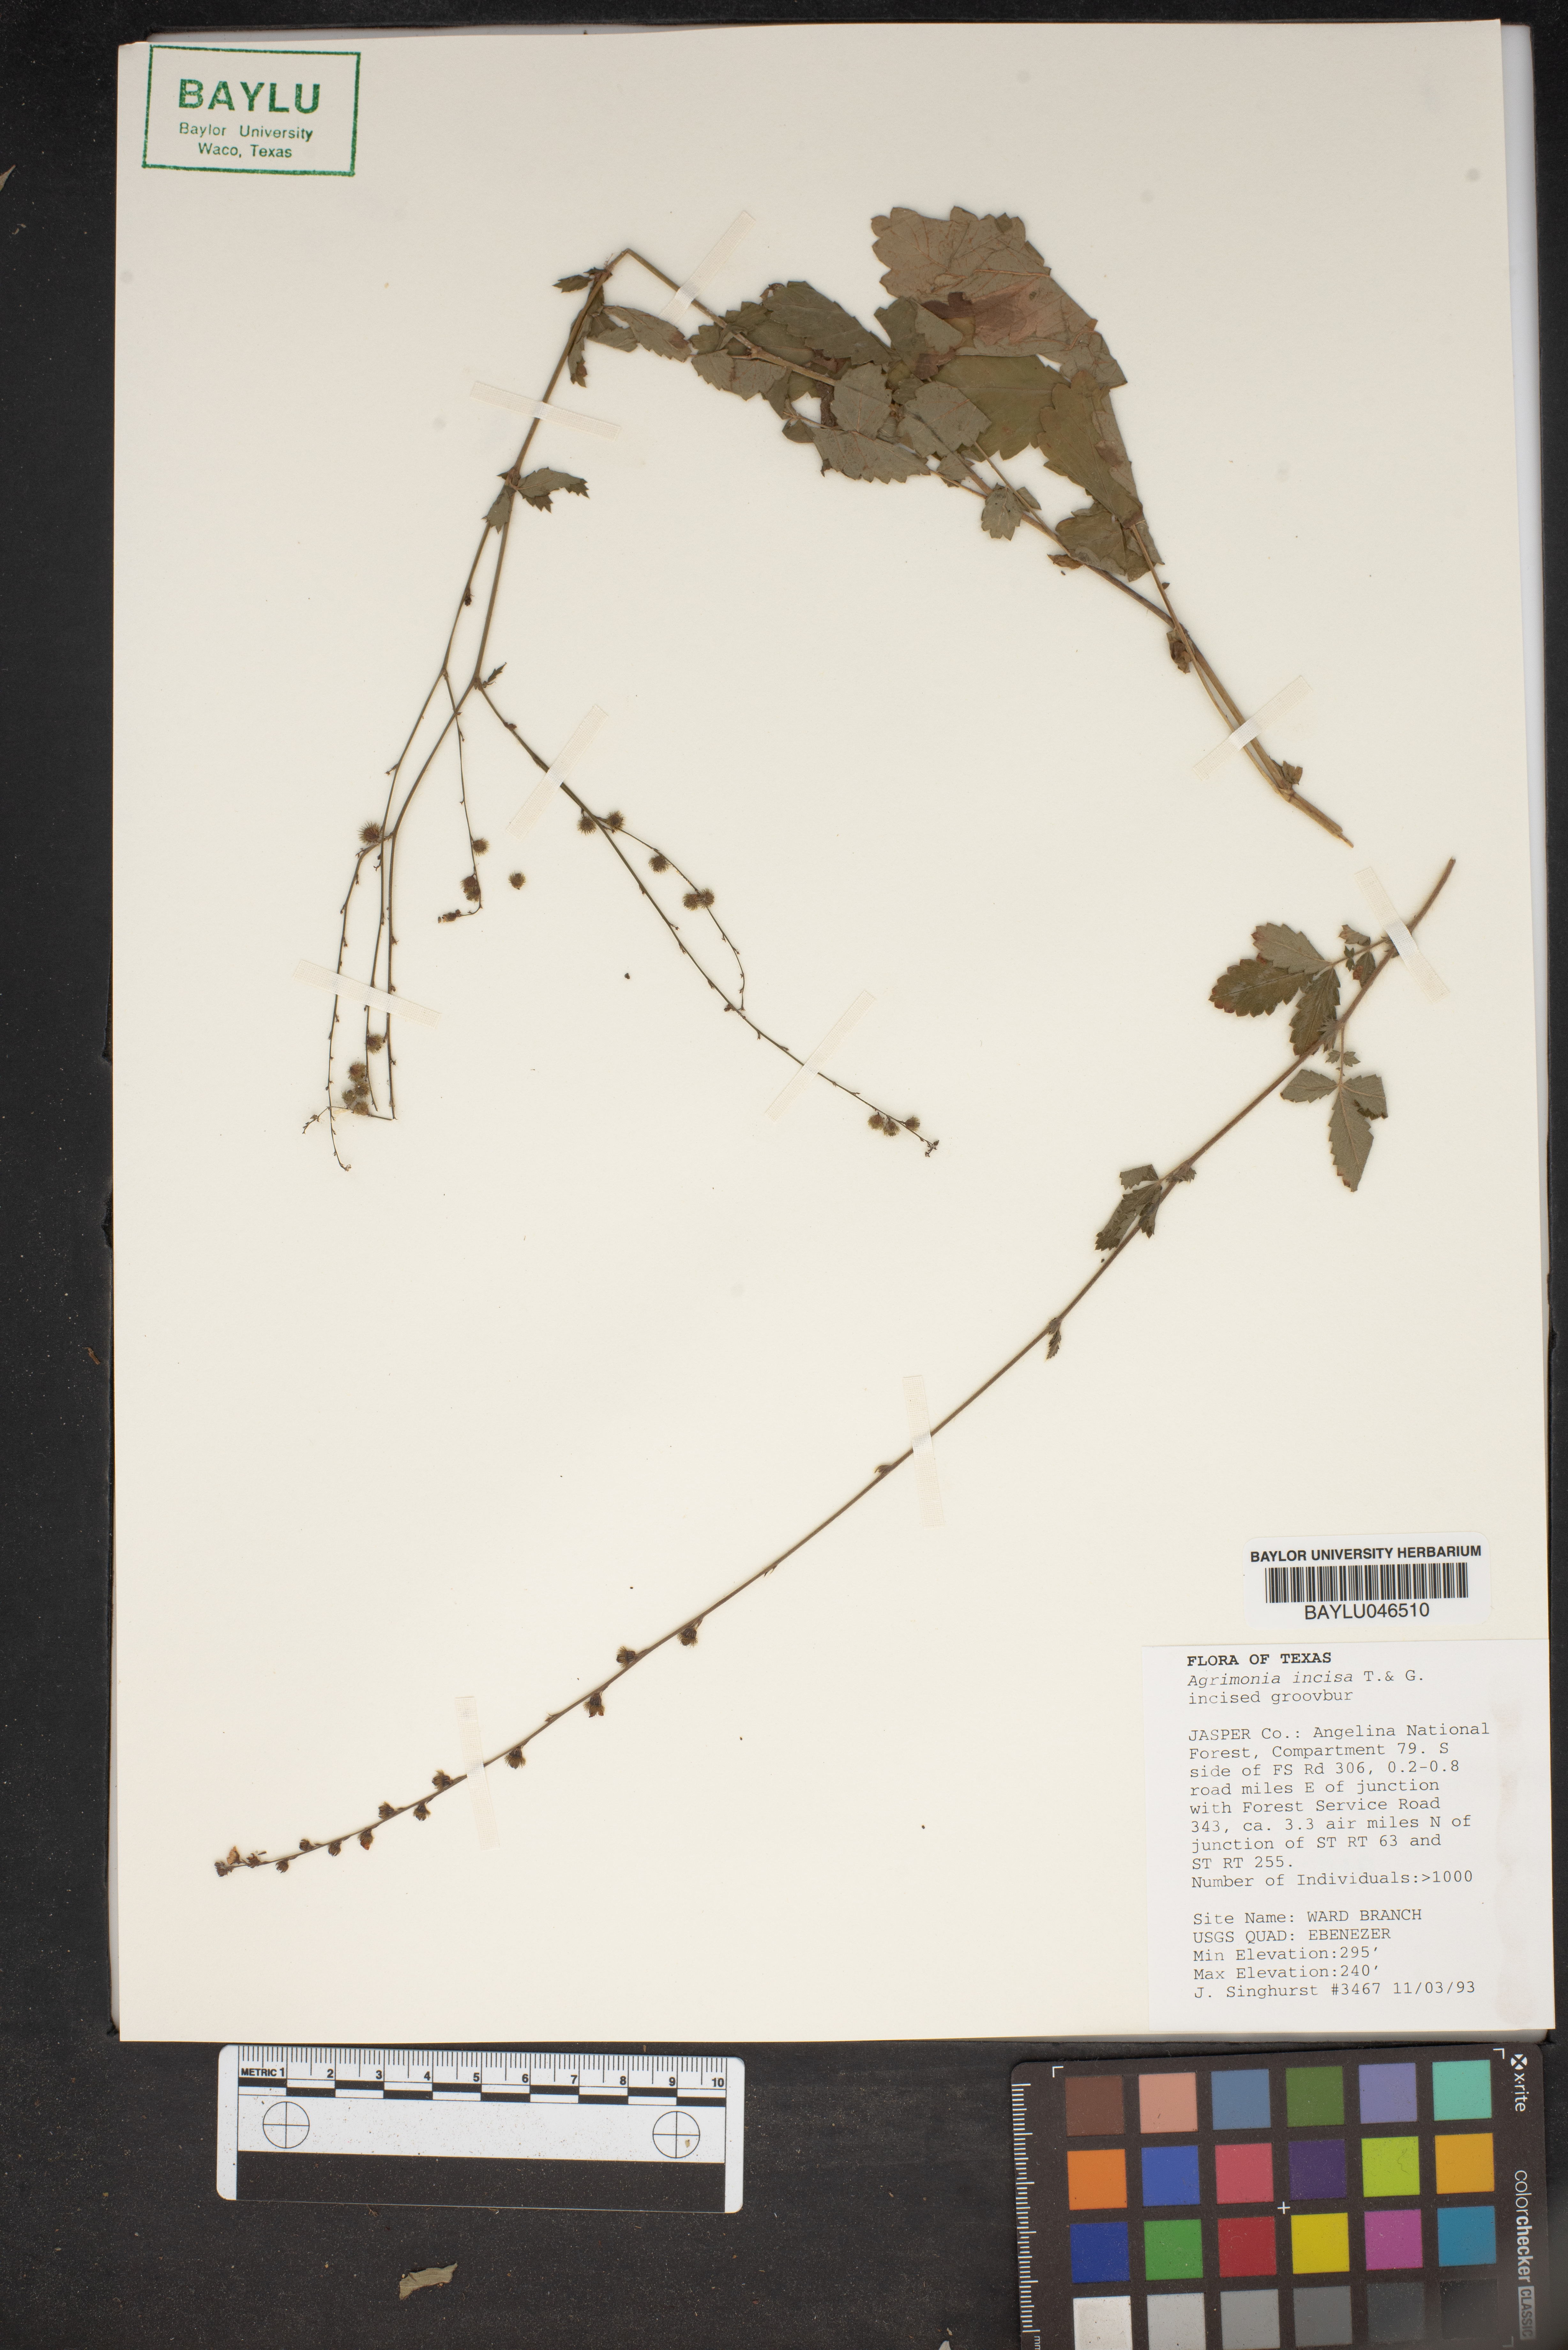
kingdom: Plantae
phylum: Tracheophyta
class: Magnoliopsida
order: Rosales
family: Rosaceae
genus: Agrimonia
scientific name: Agrimonia incisa
